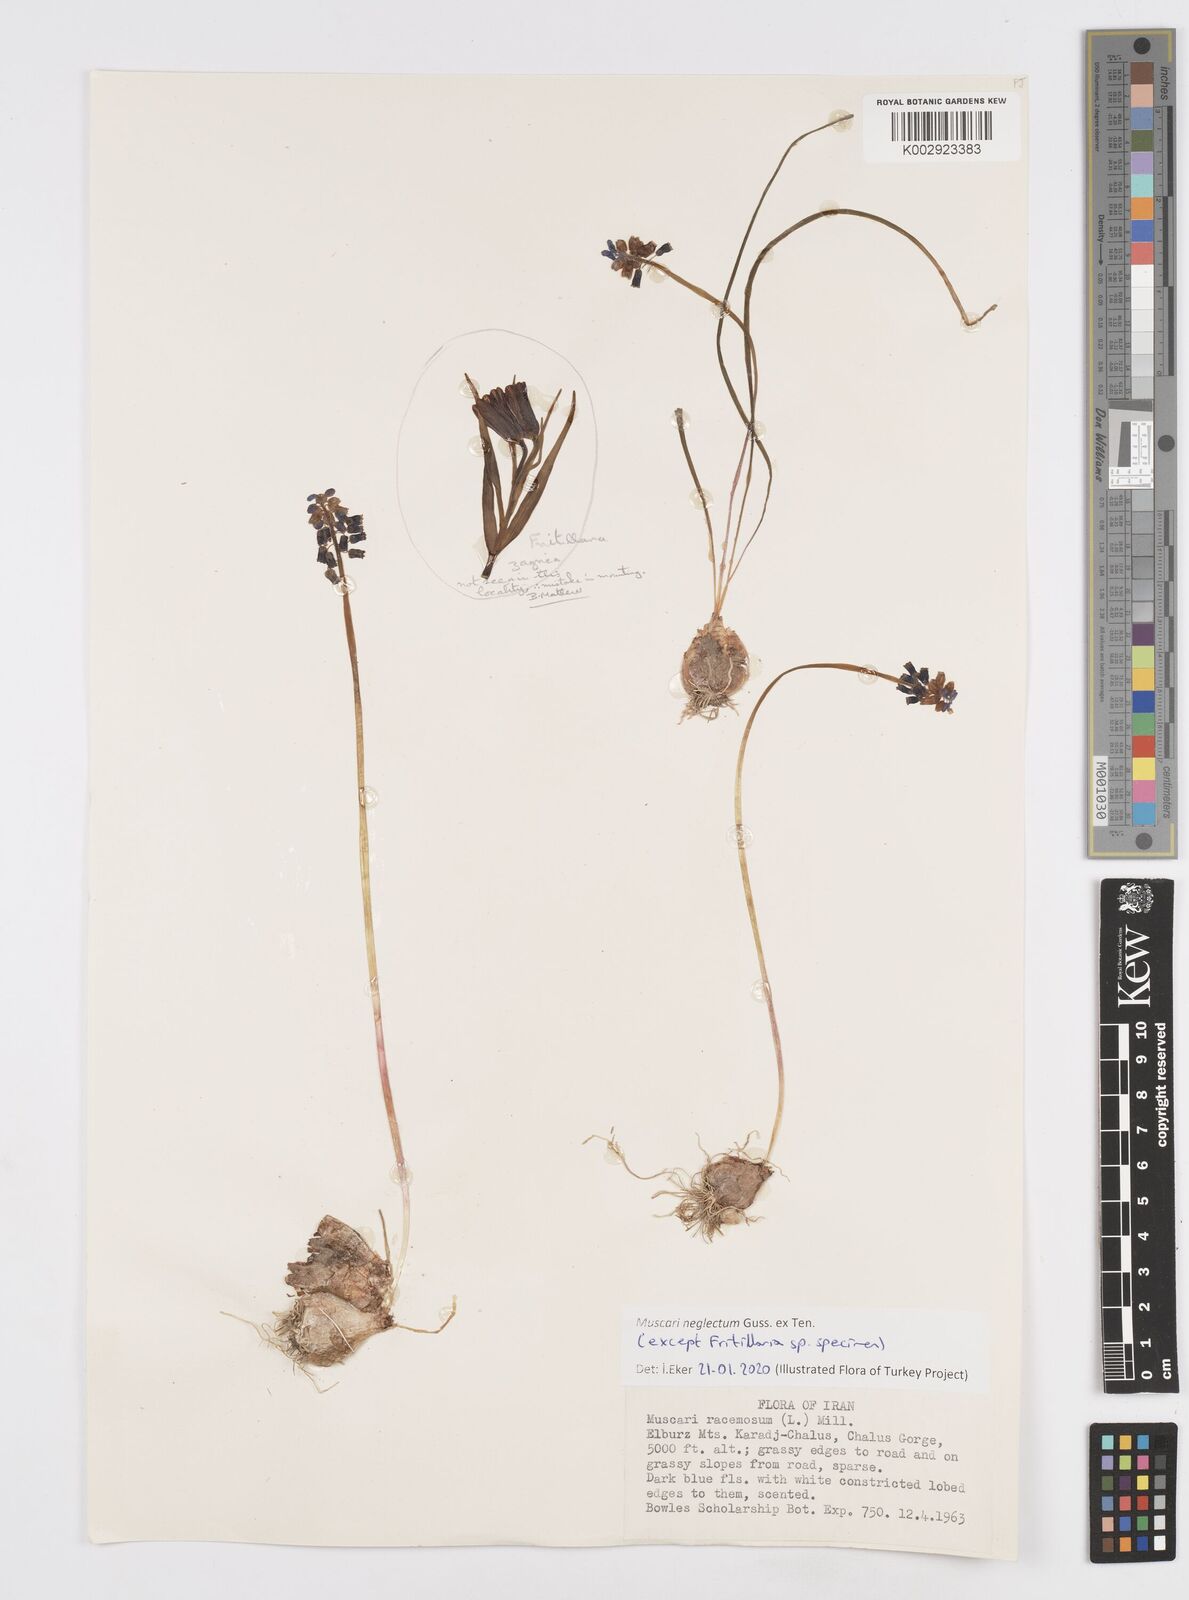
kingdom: Plantae
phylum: Tracheophyta
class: Liliopsida
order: Asparagales
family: Asparagaceae
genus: Muscari
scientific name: Muscari neglectum
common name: Grape-hyacinth
